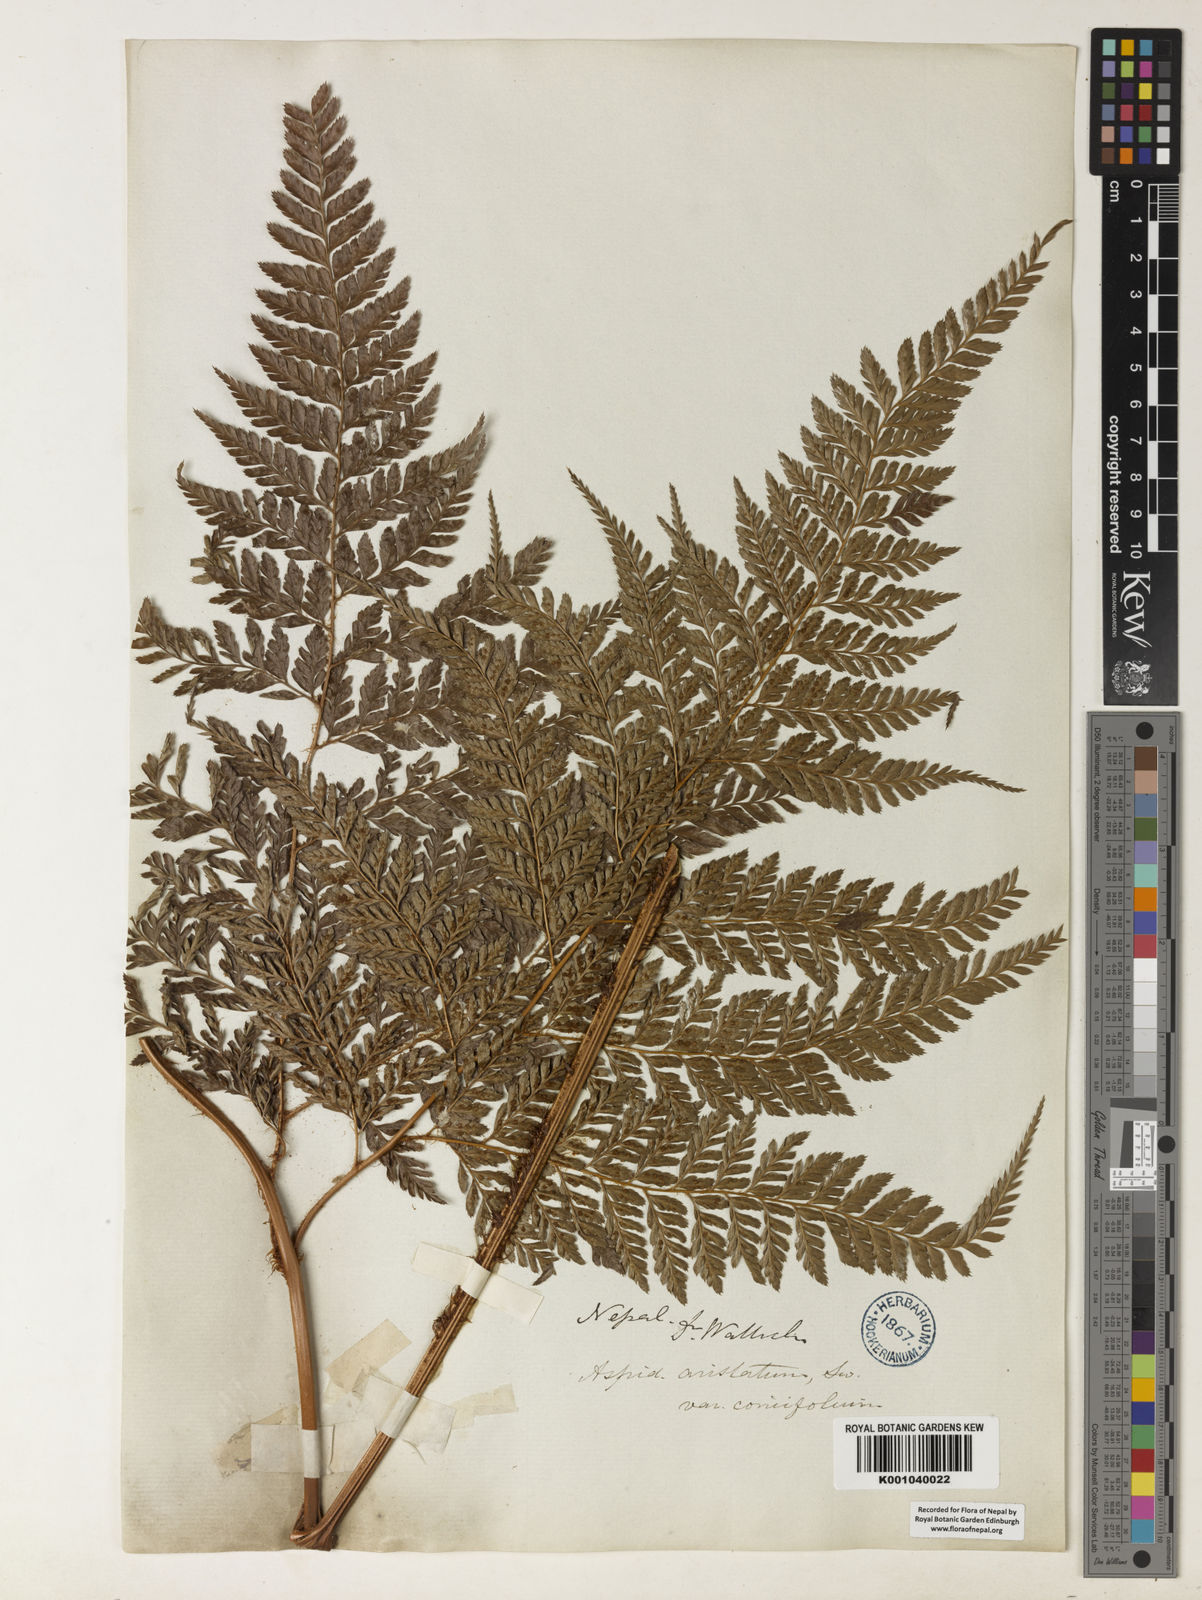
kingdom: Plantae
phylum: Tracheophyta
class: Polypodiopsida
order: Polypodiales
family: Dryopteridaceae
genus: Arachniodes
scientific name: Arachniodes coniifolia
